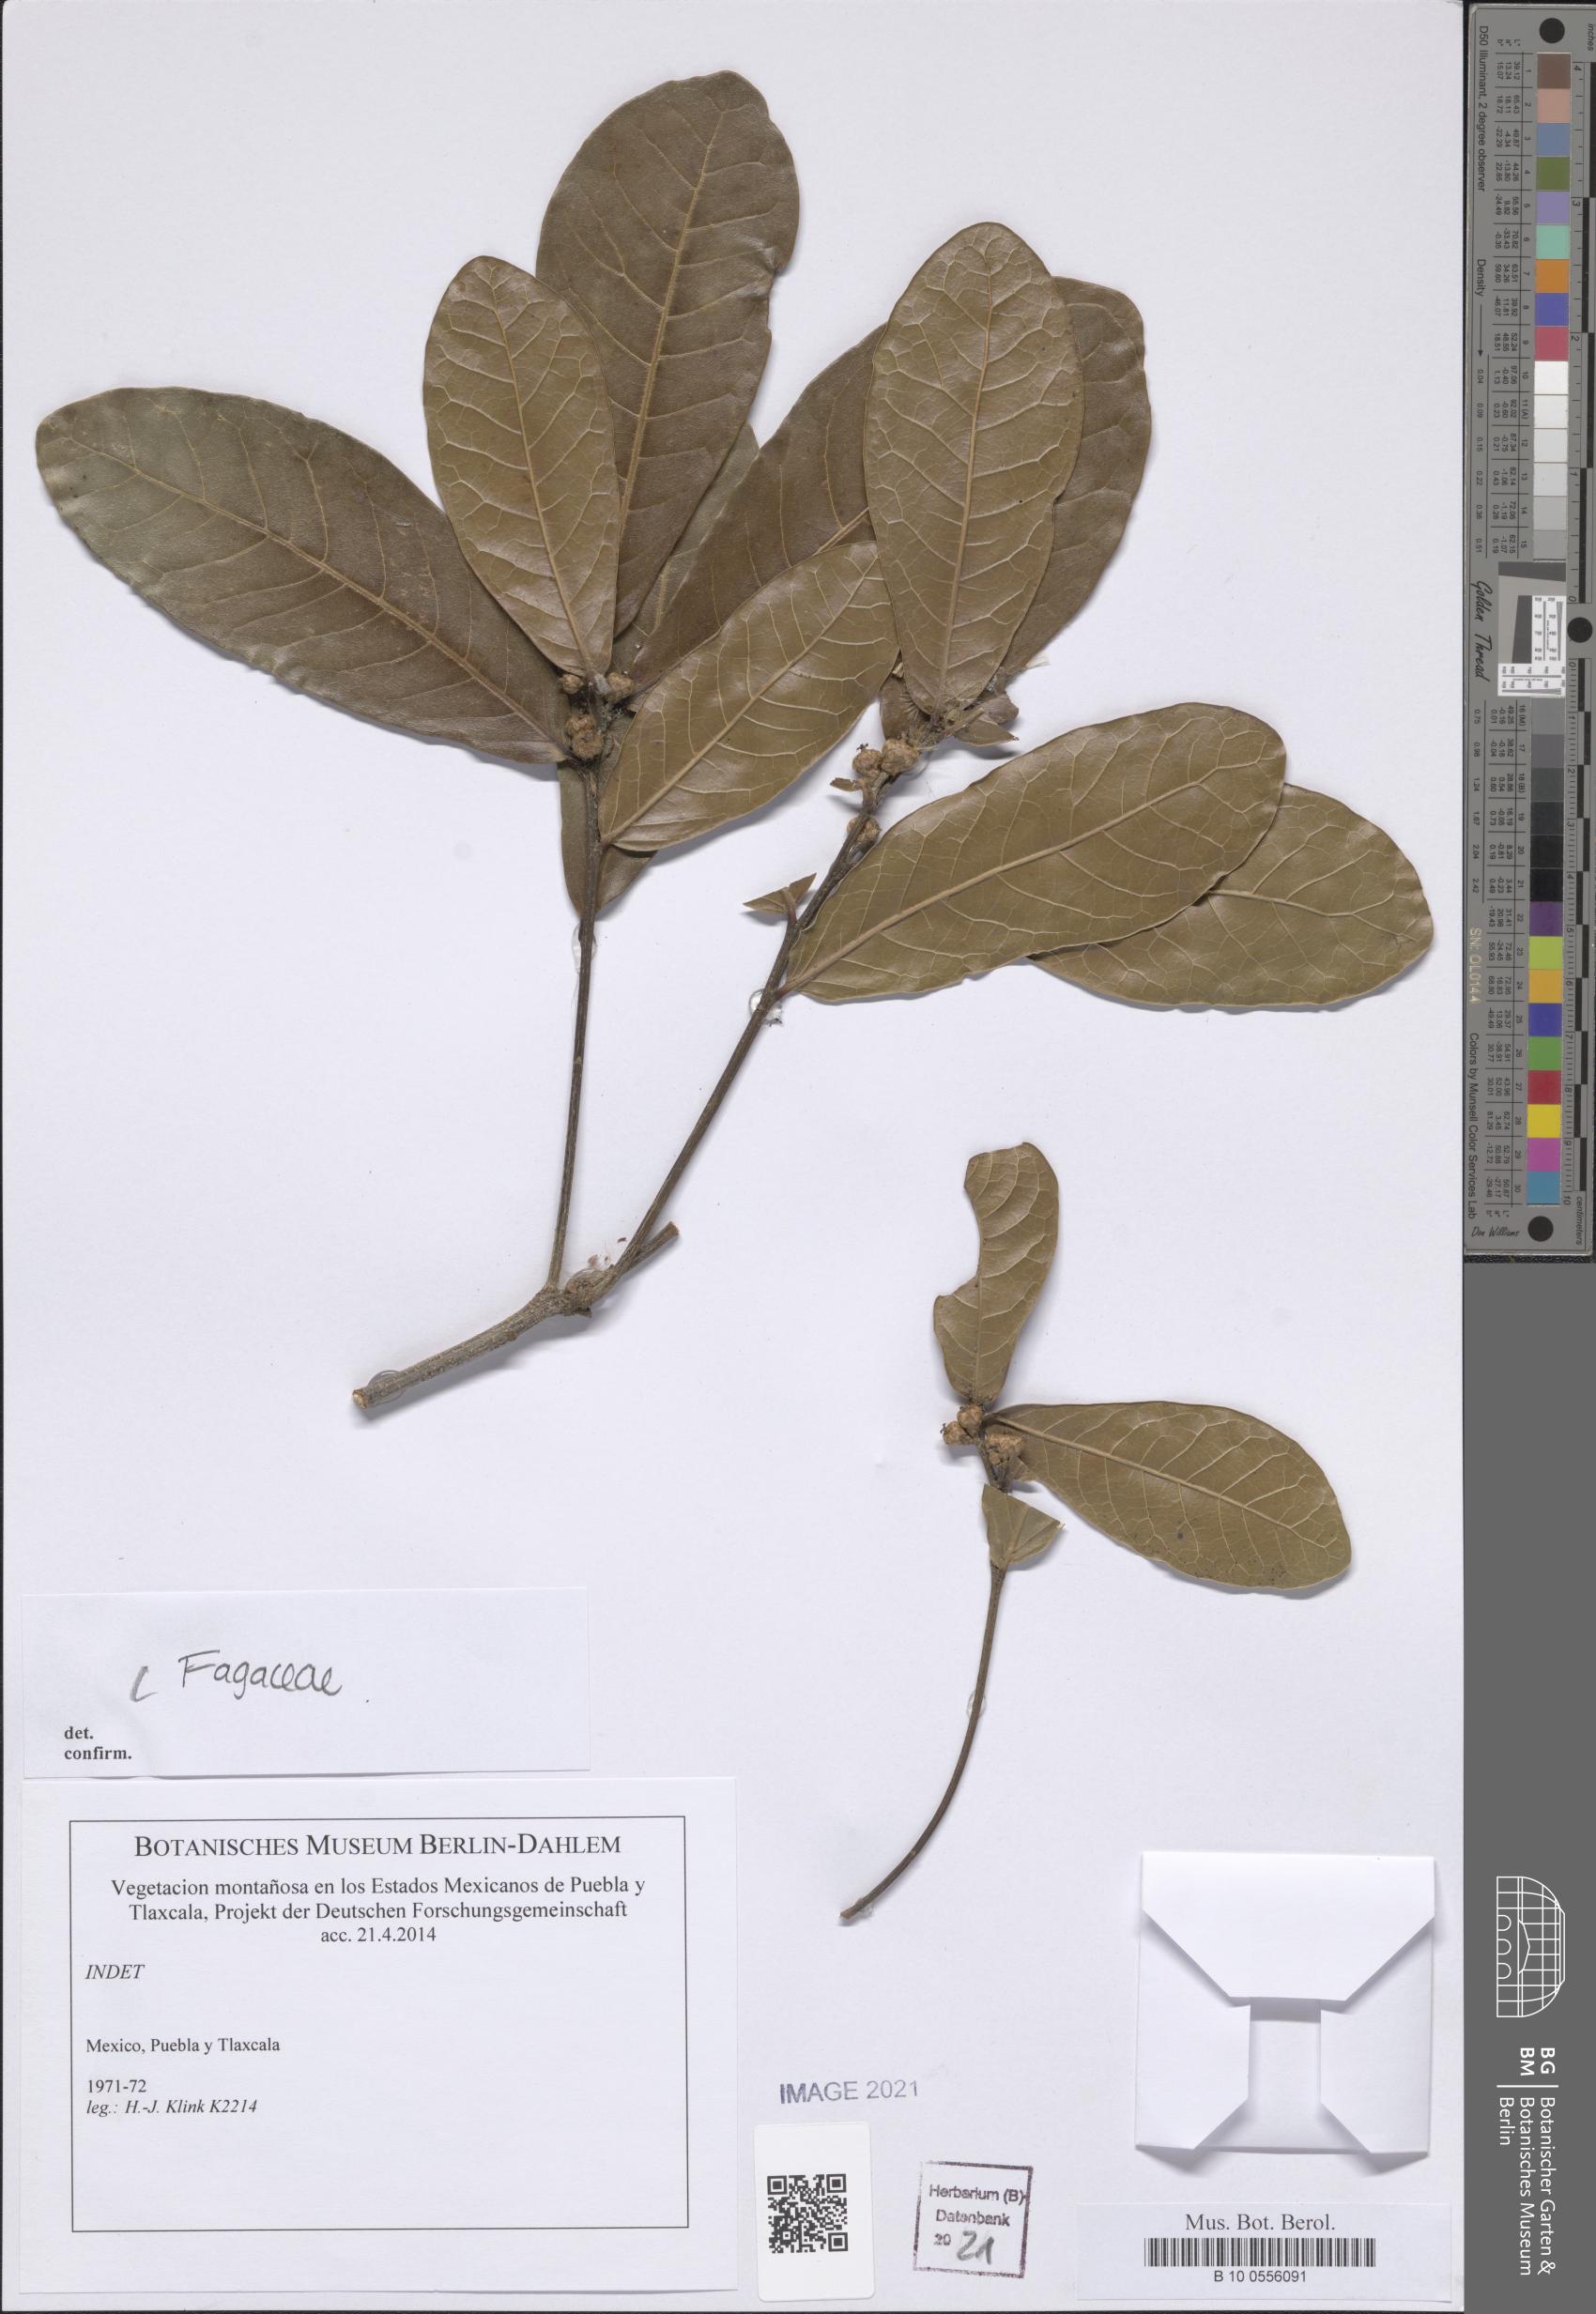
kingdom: Plantae
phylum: Tracheophyta
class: Magnoliopsida
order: Fagales
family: Fagaceae
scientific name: Fagaceae
